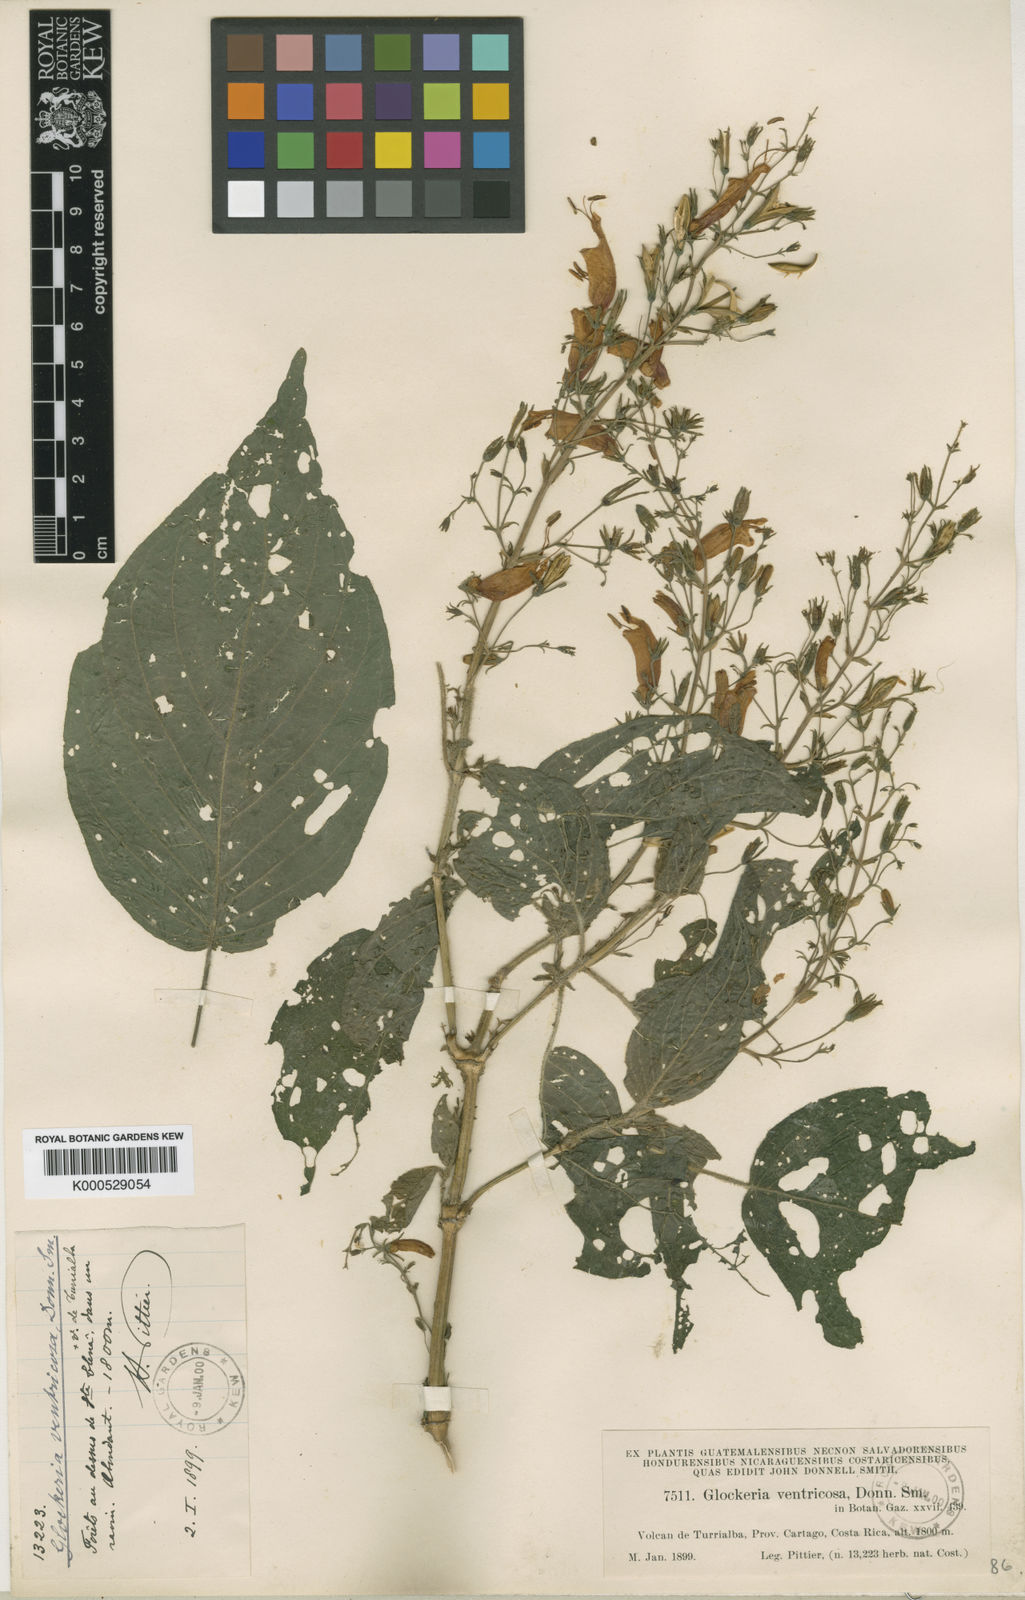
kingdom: Plantae
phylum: Tracheophyta
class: Magnoliopsida
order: Lamiales
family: Acanthaceae
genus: Stenostephanus
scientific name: Stenostephanus
